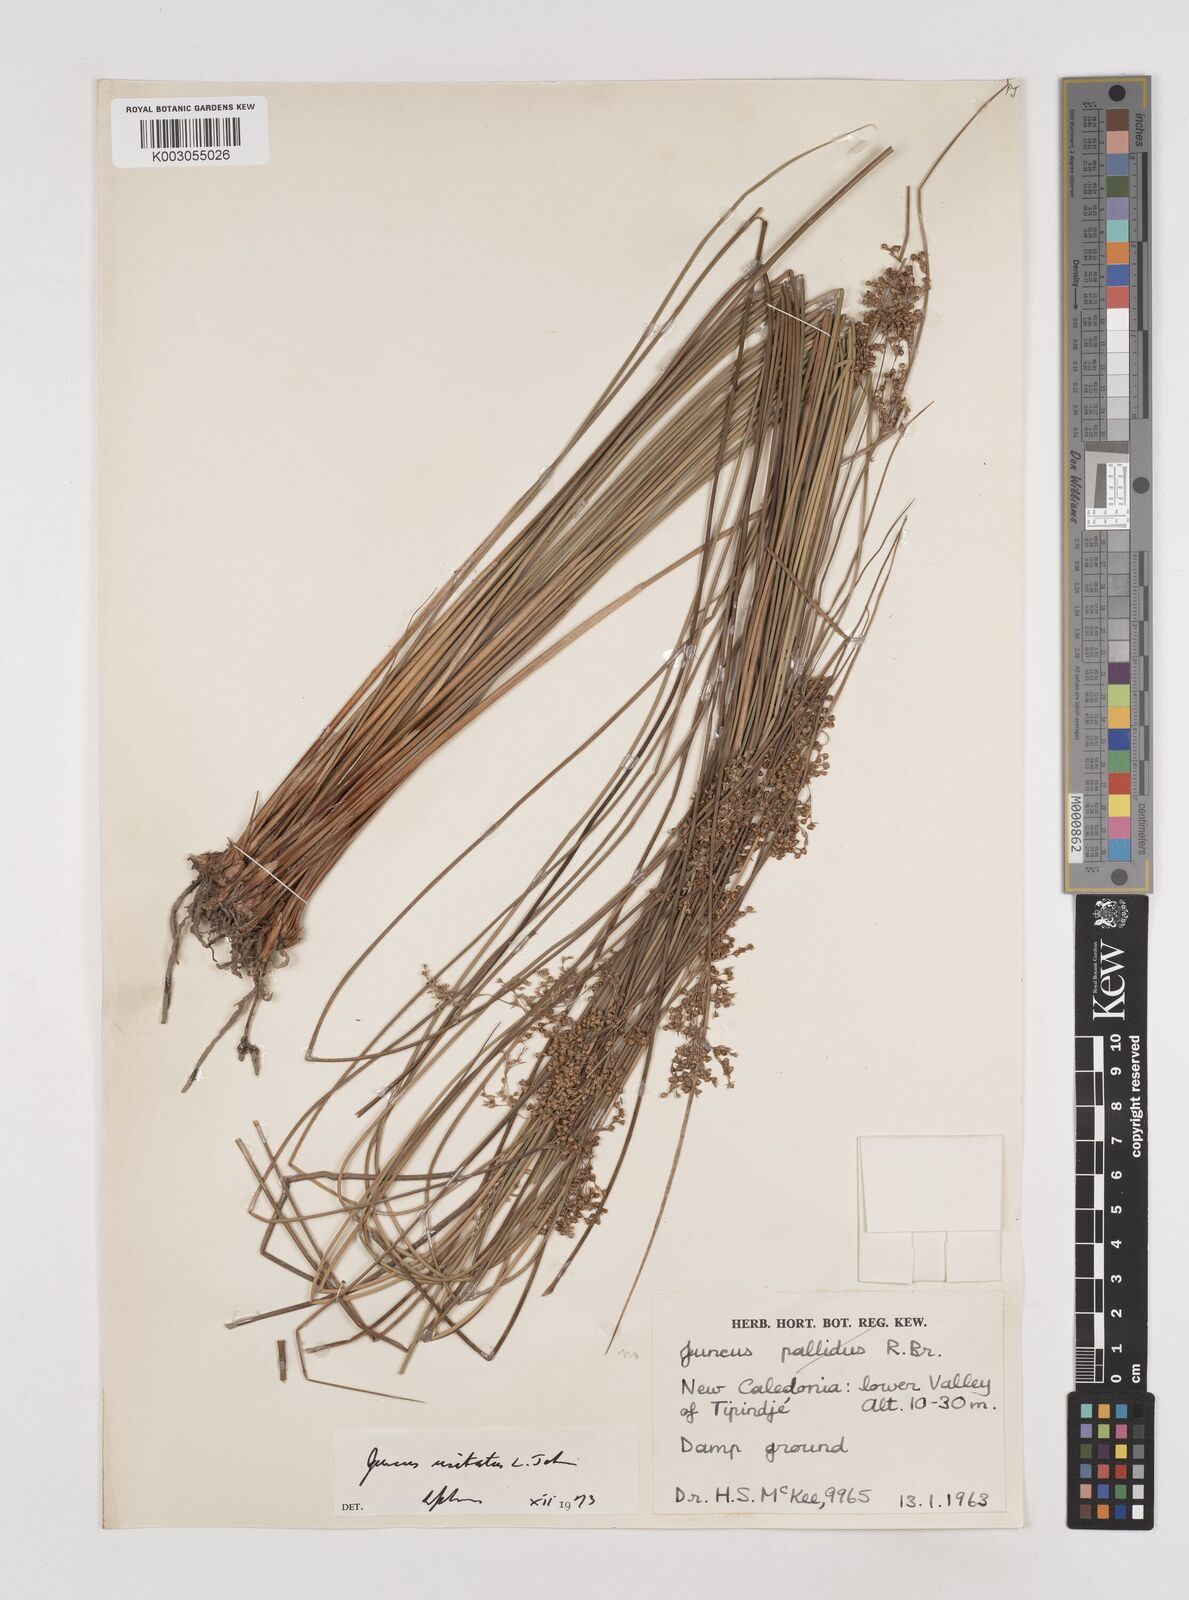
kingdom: Plantae
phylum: Tracheophyta
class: Liliopsida
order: Poales
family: Juncaceae
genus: Juncus
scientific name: Juncus usitatus
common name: Rush
